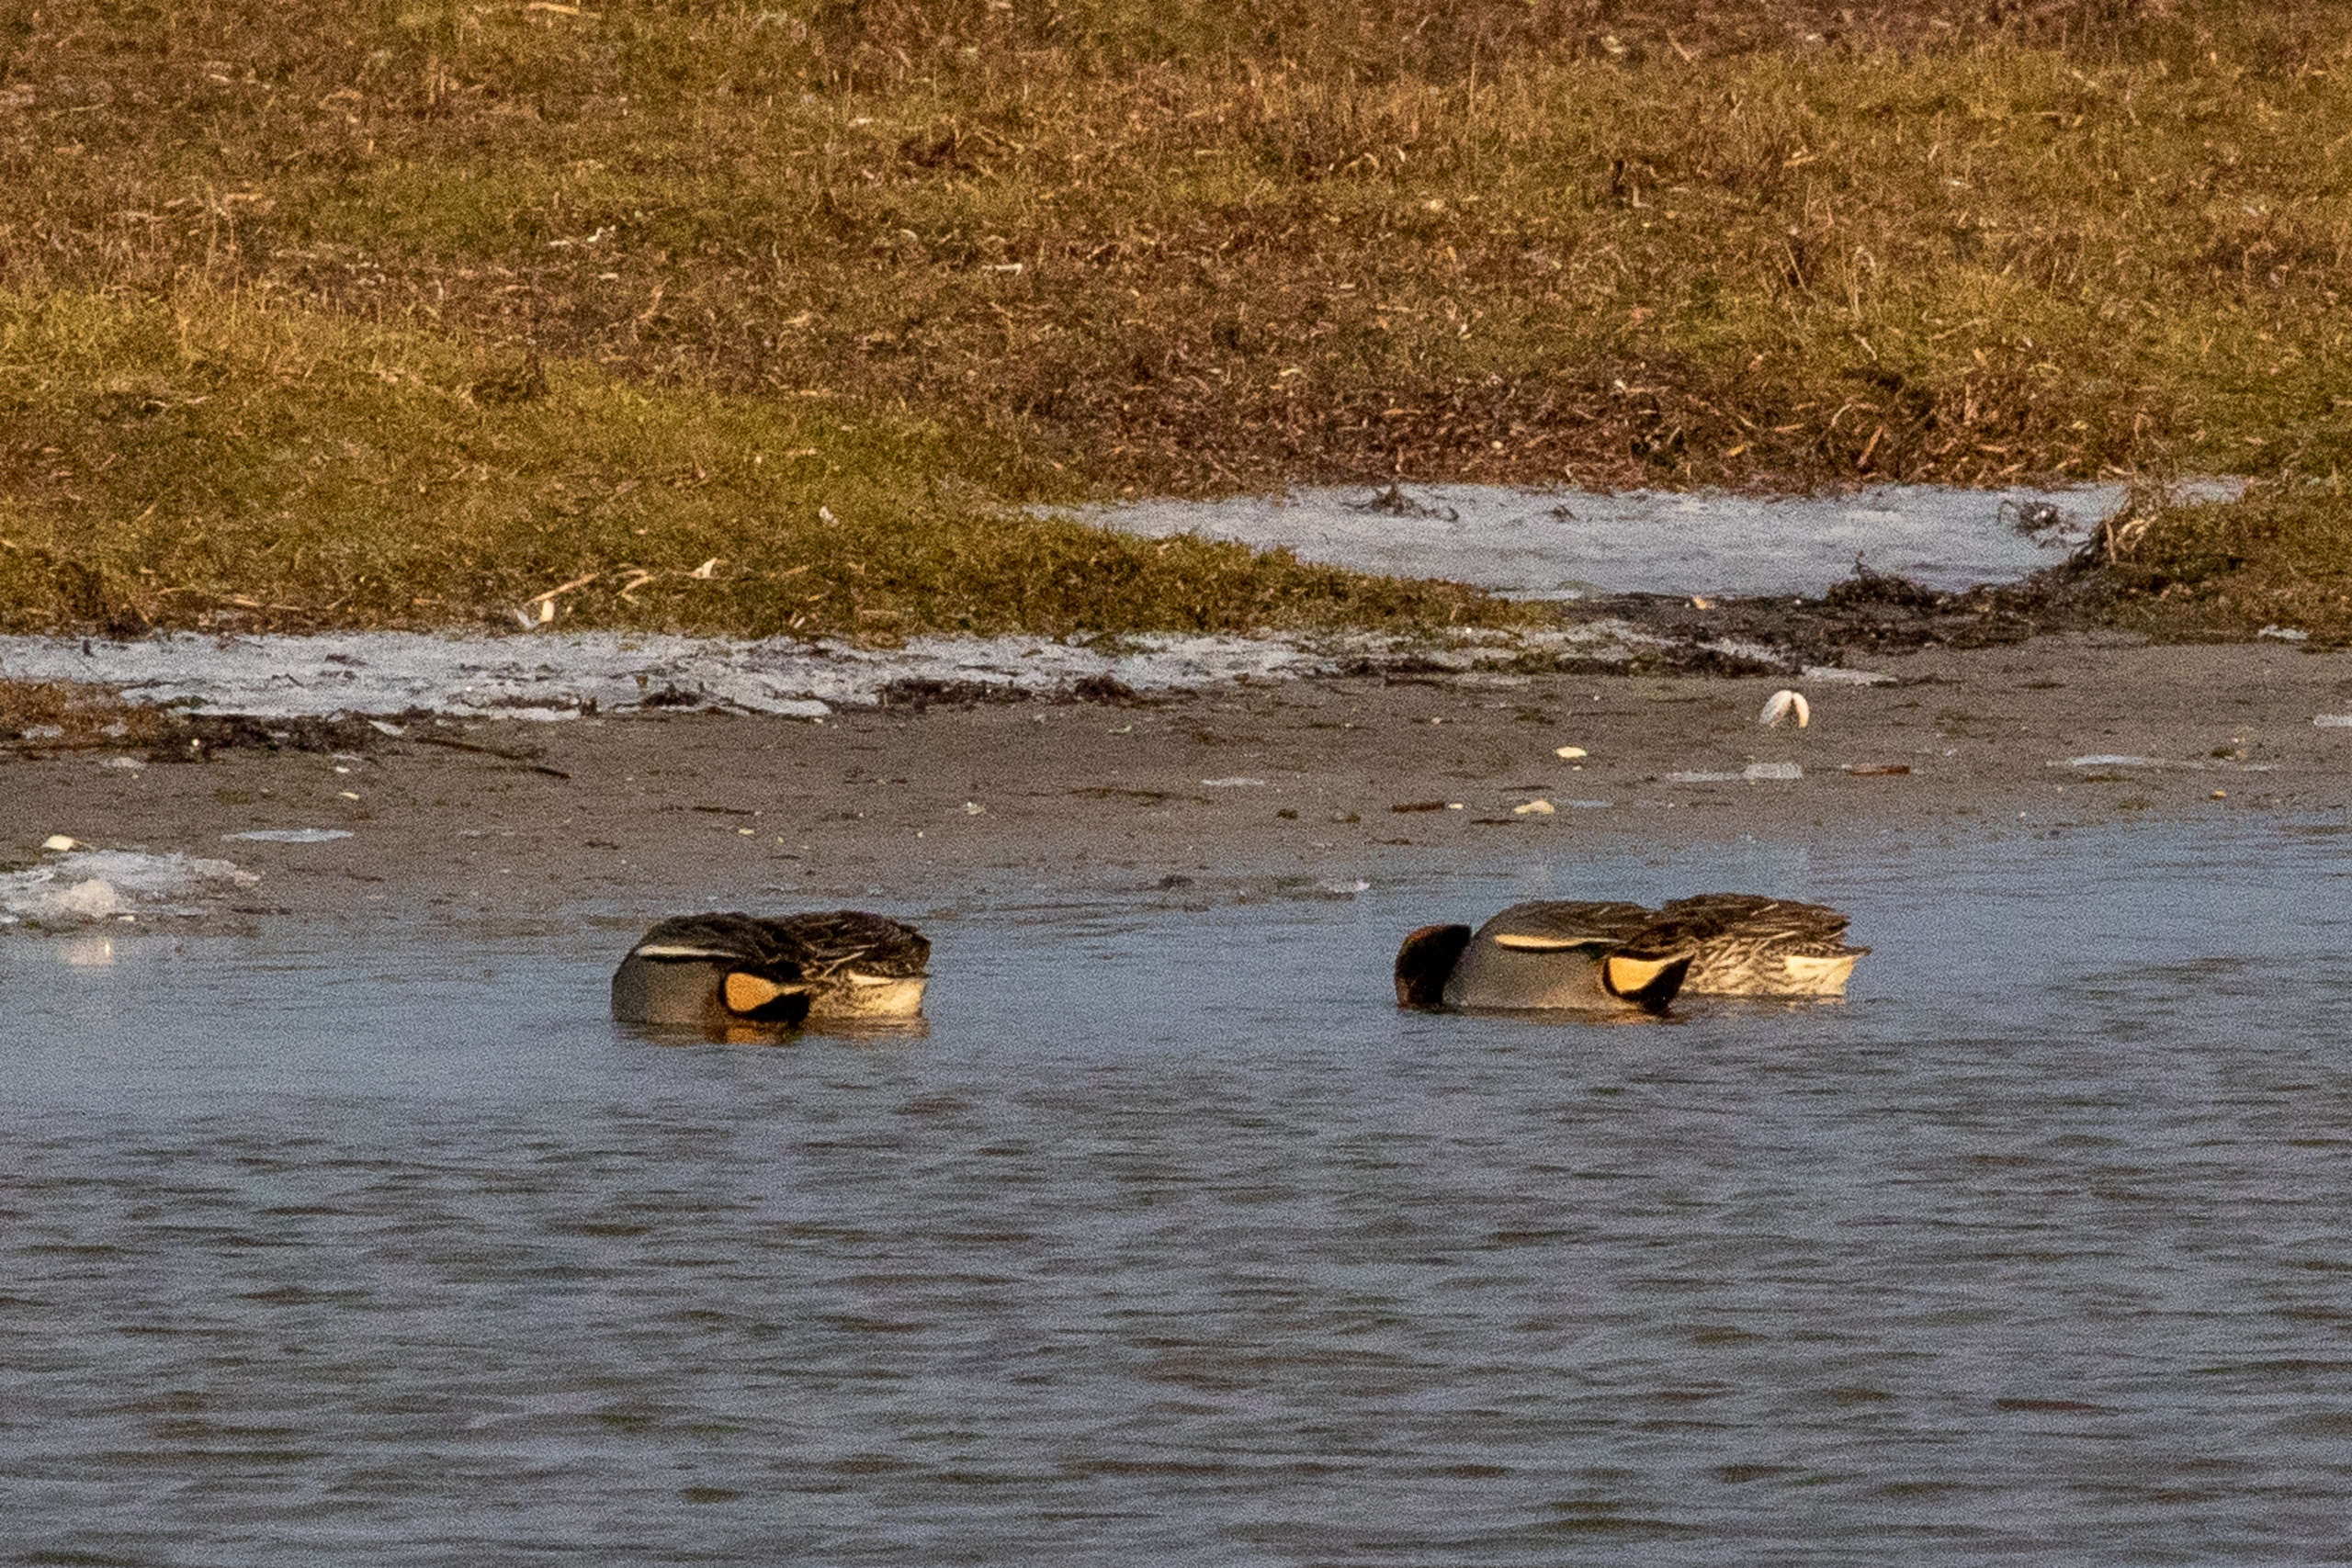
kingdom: Animalia
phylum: Chordata
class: Aves
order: Anseriformes
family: Anatidae
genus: Anas
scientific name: Anas crecca
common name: Krikand
